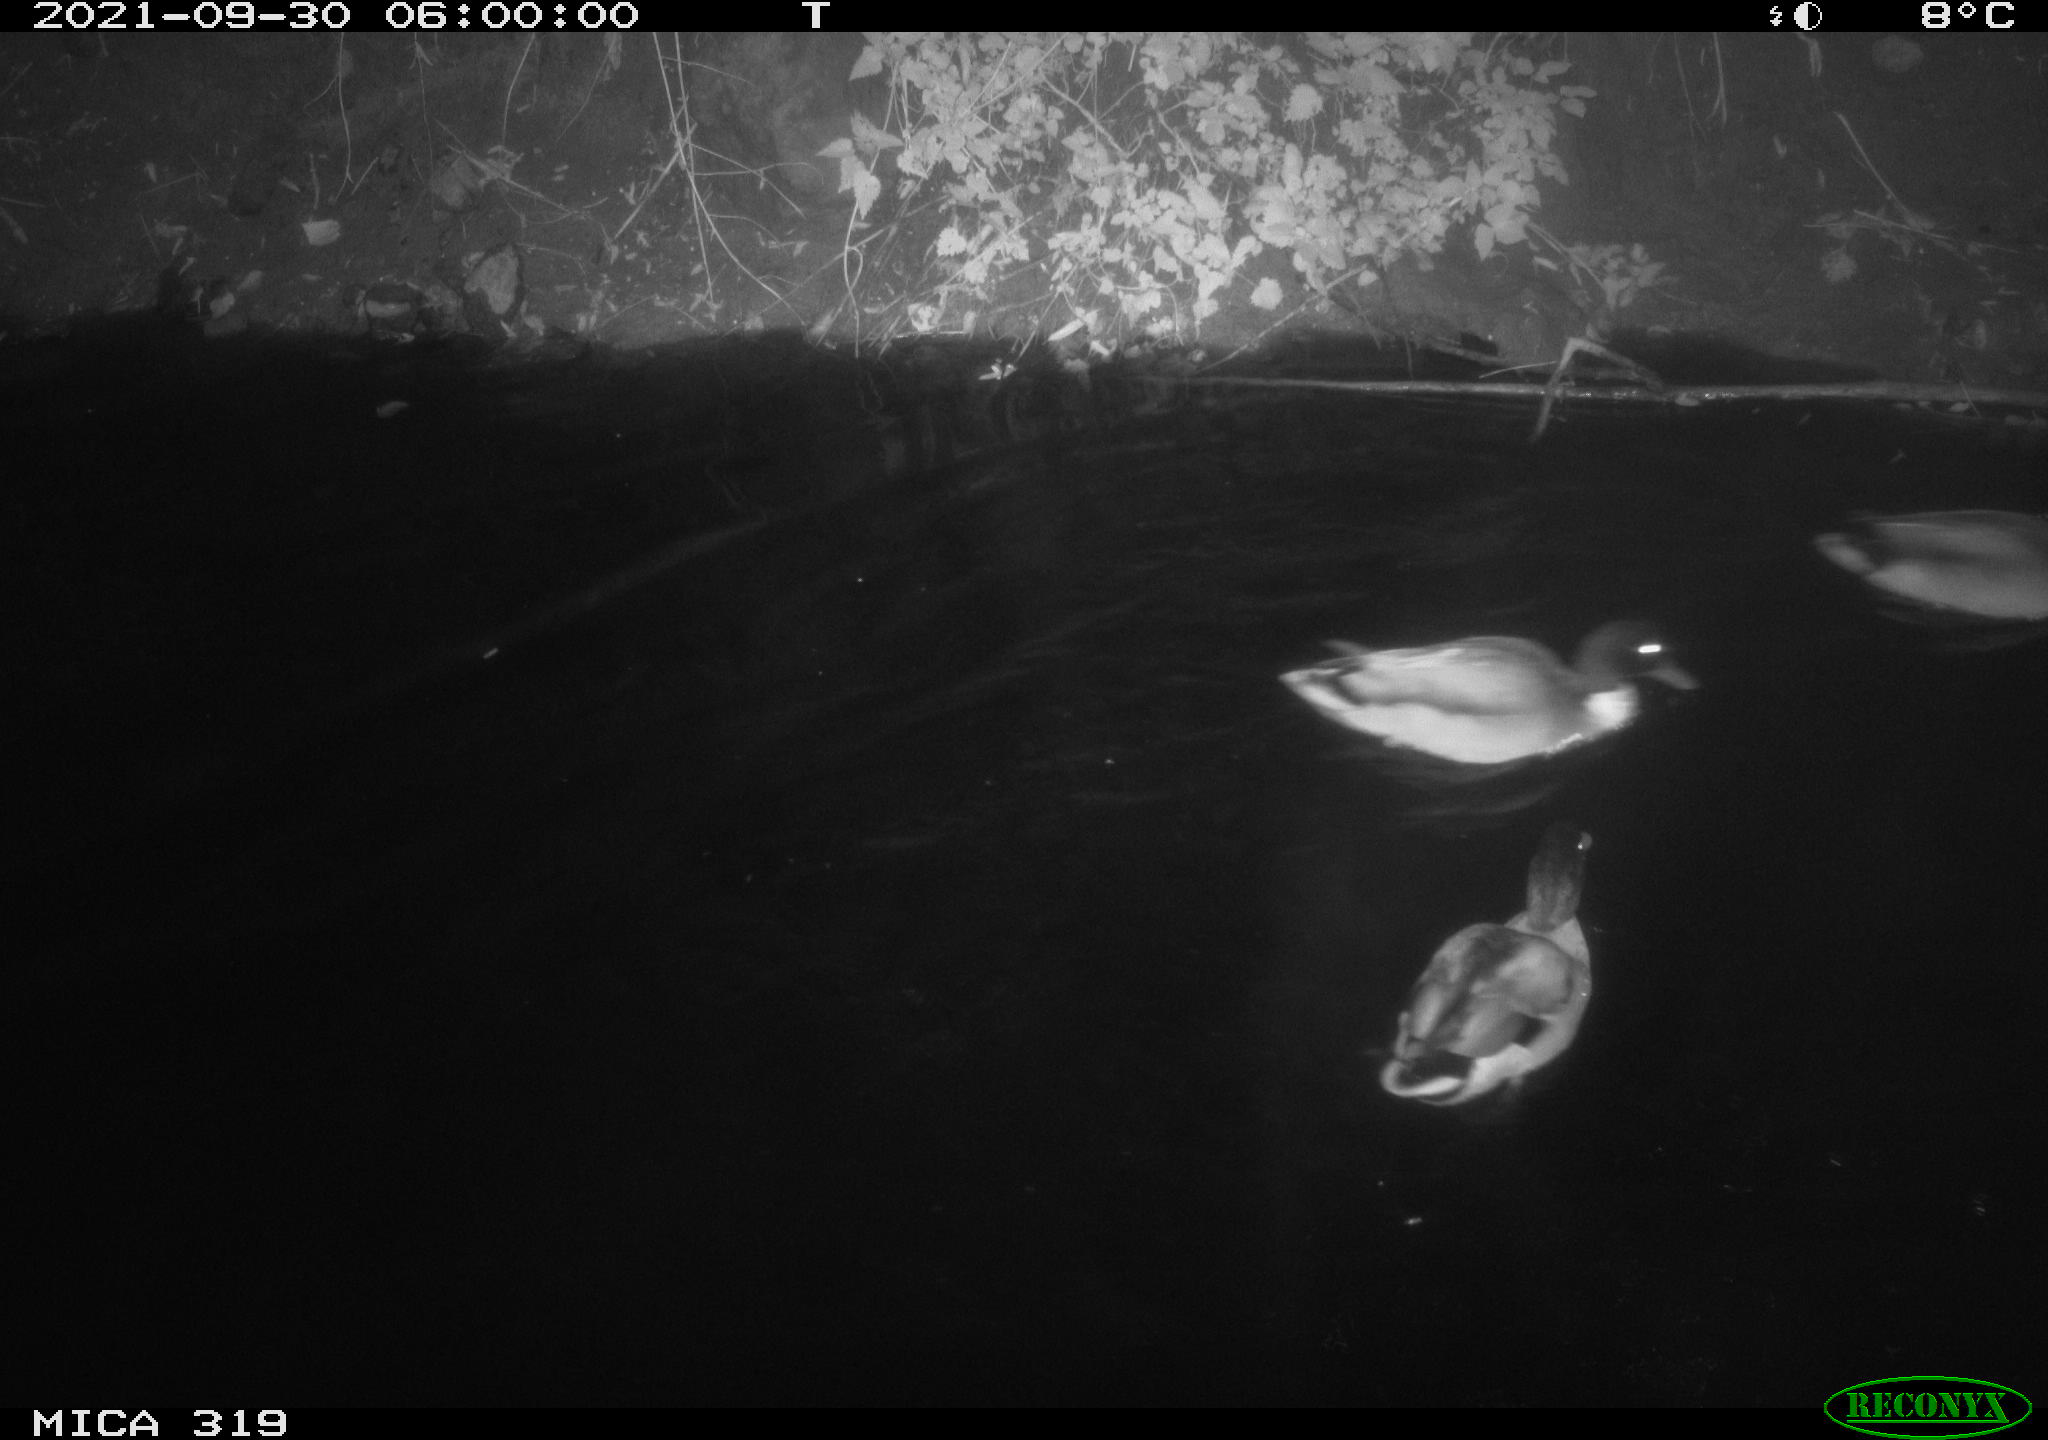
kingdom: Animalia
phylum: Chordata
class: Aves
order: Anseriformes
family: Anatidae
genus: Anas
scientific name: Anas platyrhynchos
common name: Mallard
